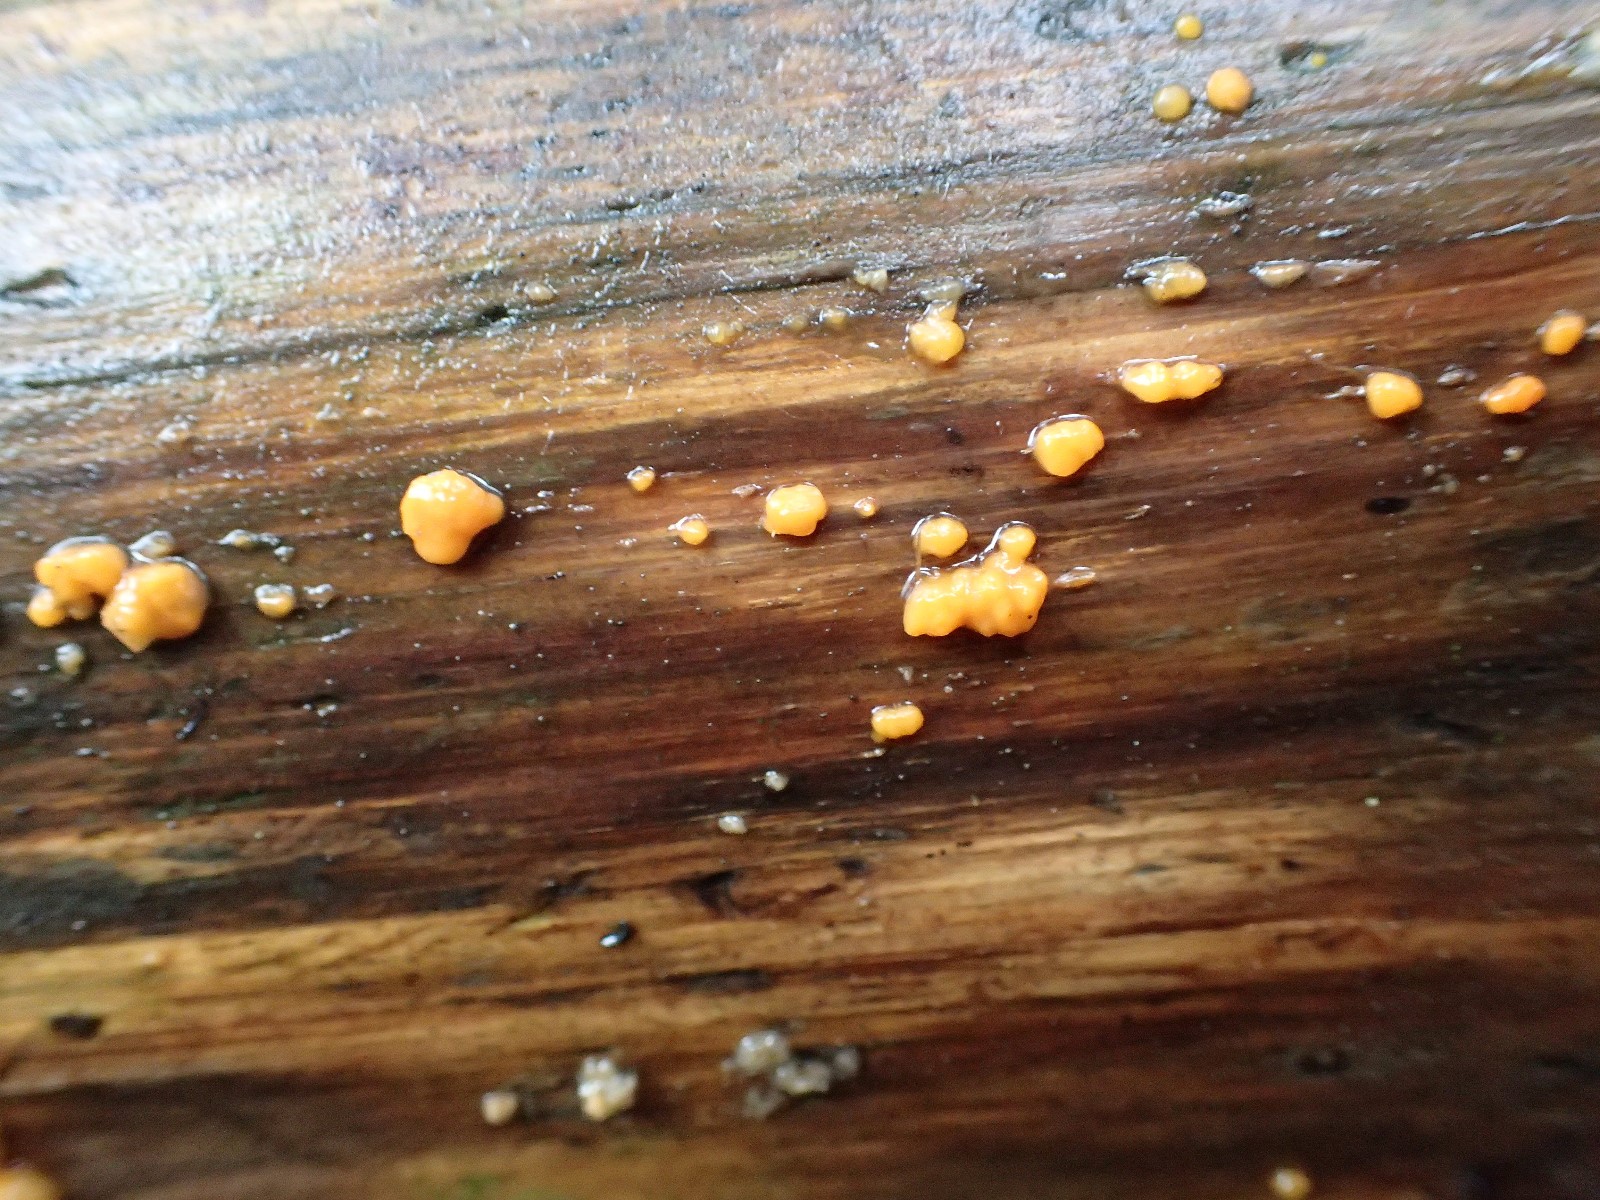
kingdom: Fungi
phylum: Basidiomycota
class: Dacrymycetes
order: Dacrymycetales
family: Dacrymycetaceae
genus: Dacrymyces
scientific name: Dacrymyces stillatus
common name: almindelig tåresvamp
